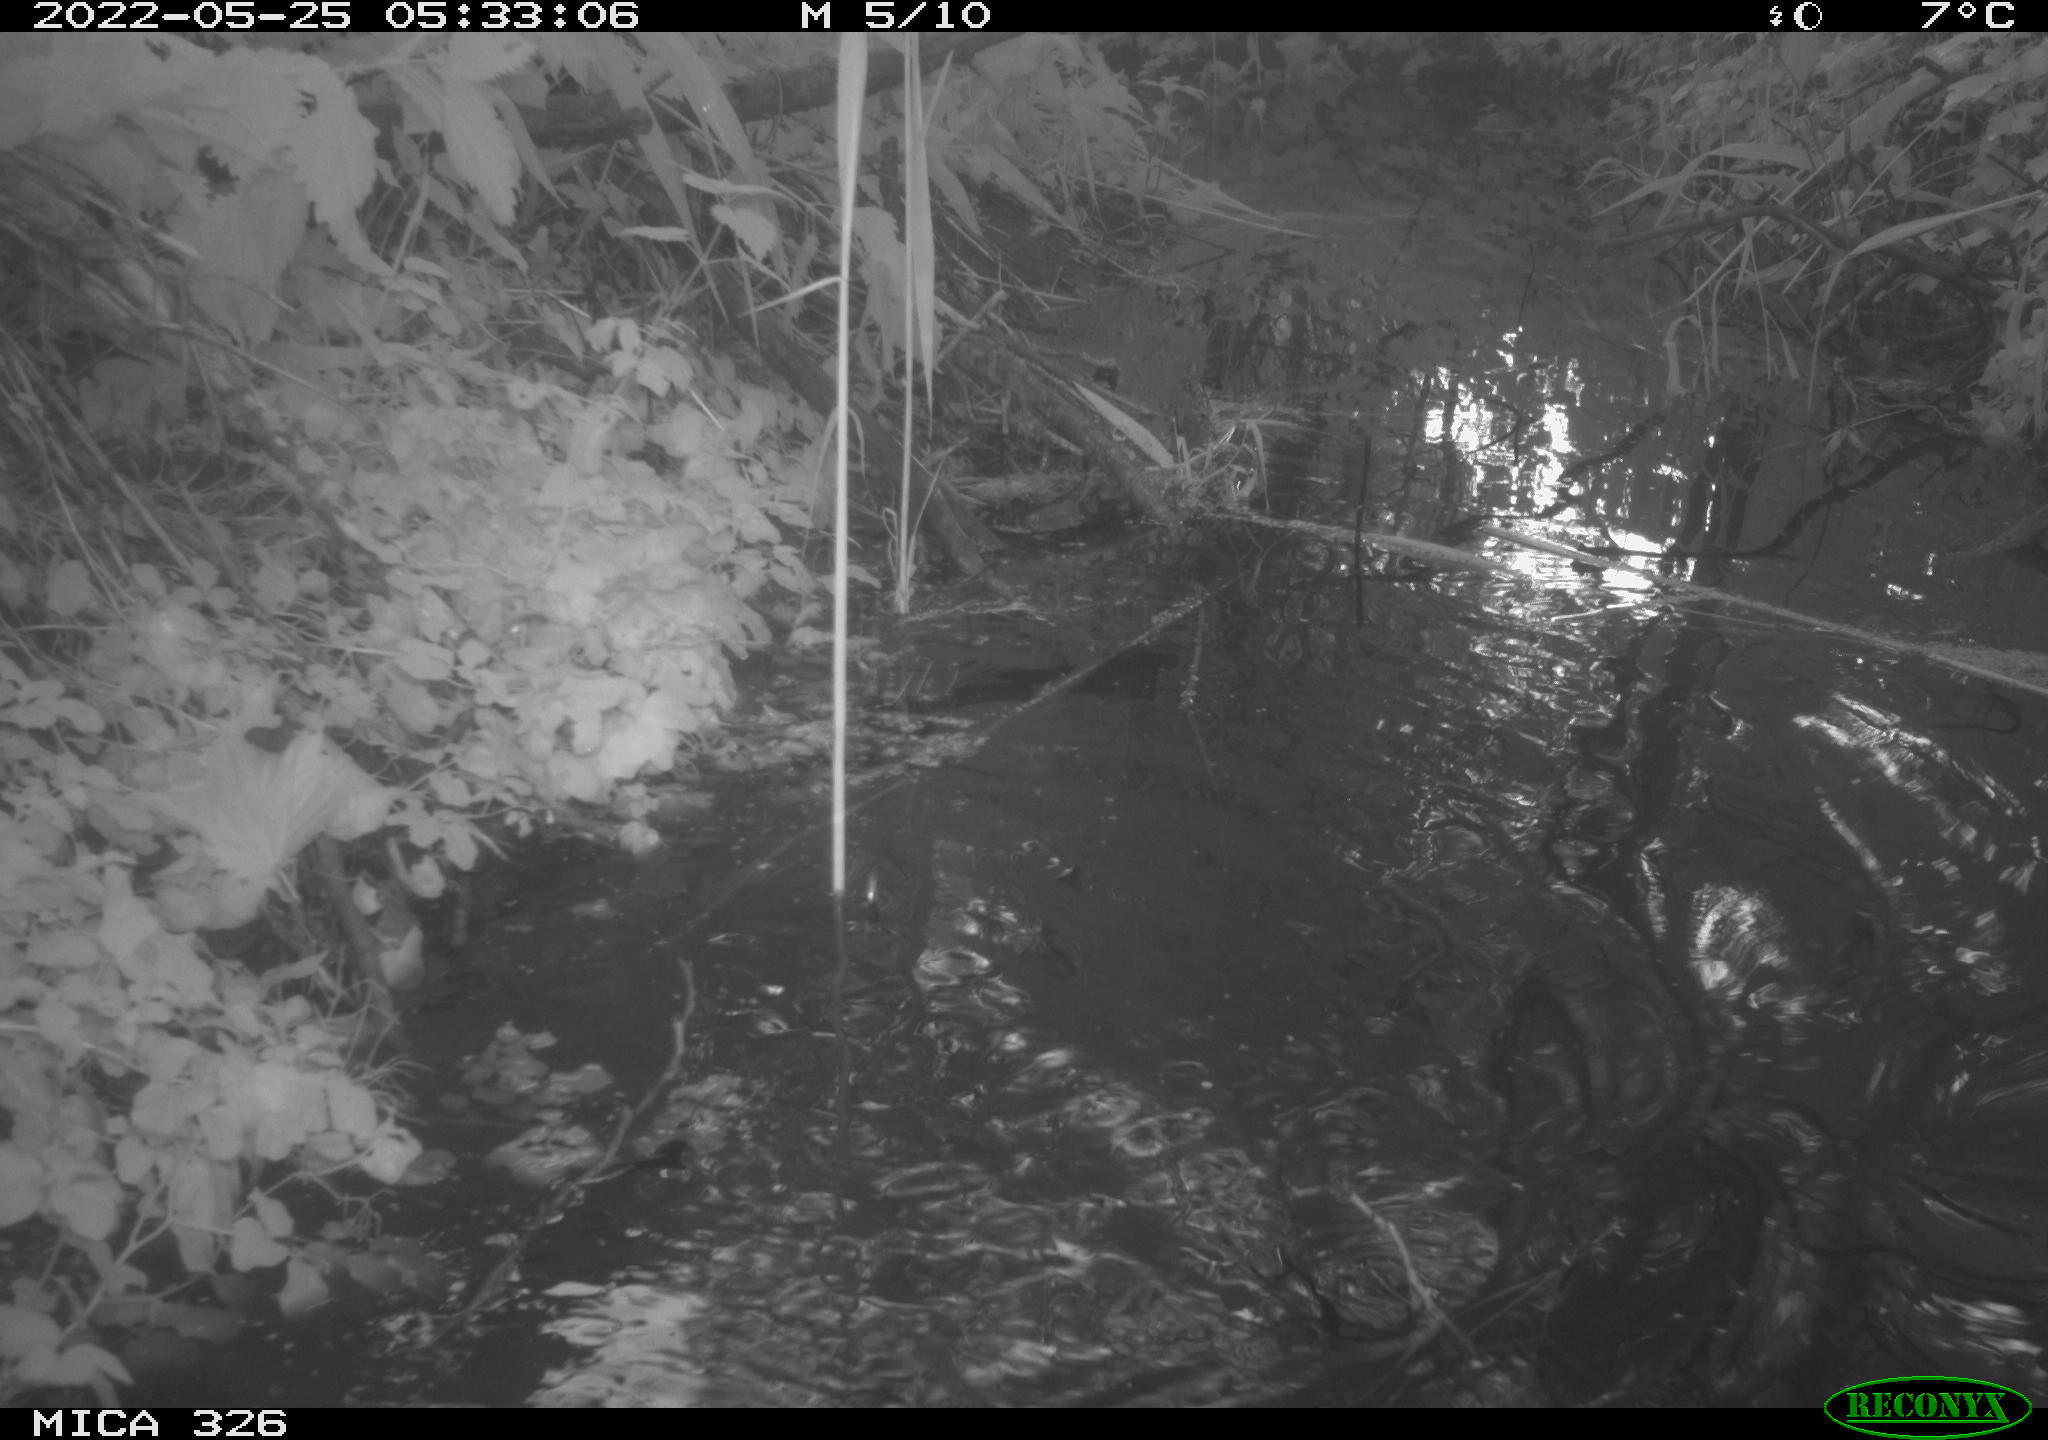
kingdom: Animalia
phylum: Chordata
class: Mammalia
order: Rodentia
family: Muridae
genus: Rattus
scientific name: Rattus norvegicus
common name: Brown rat
